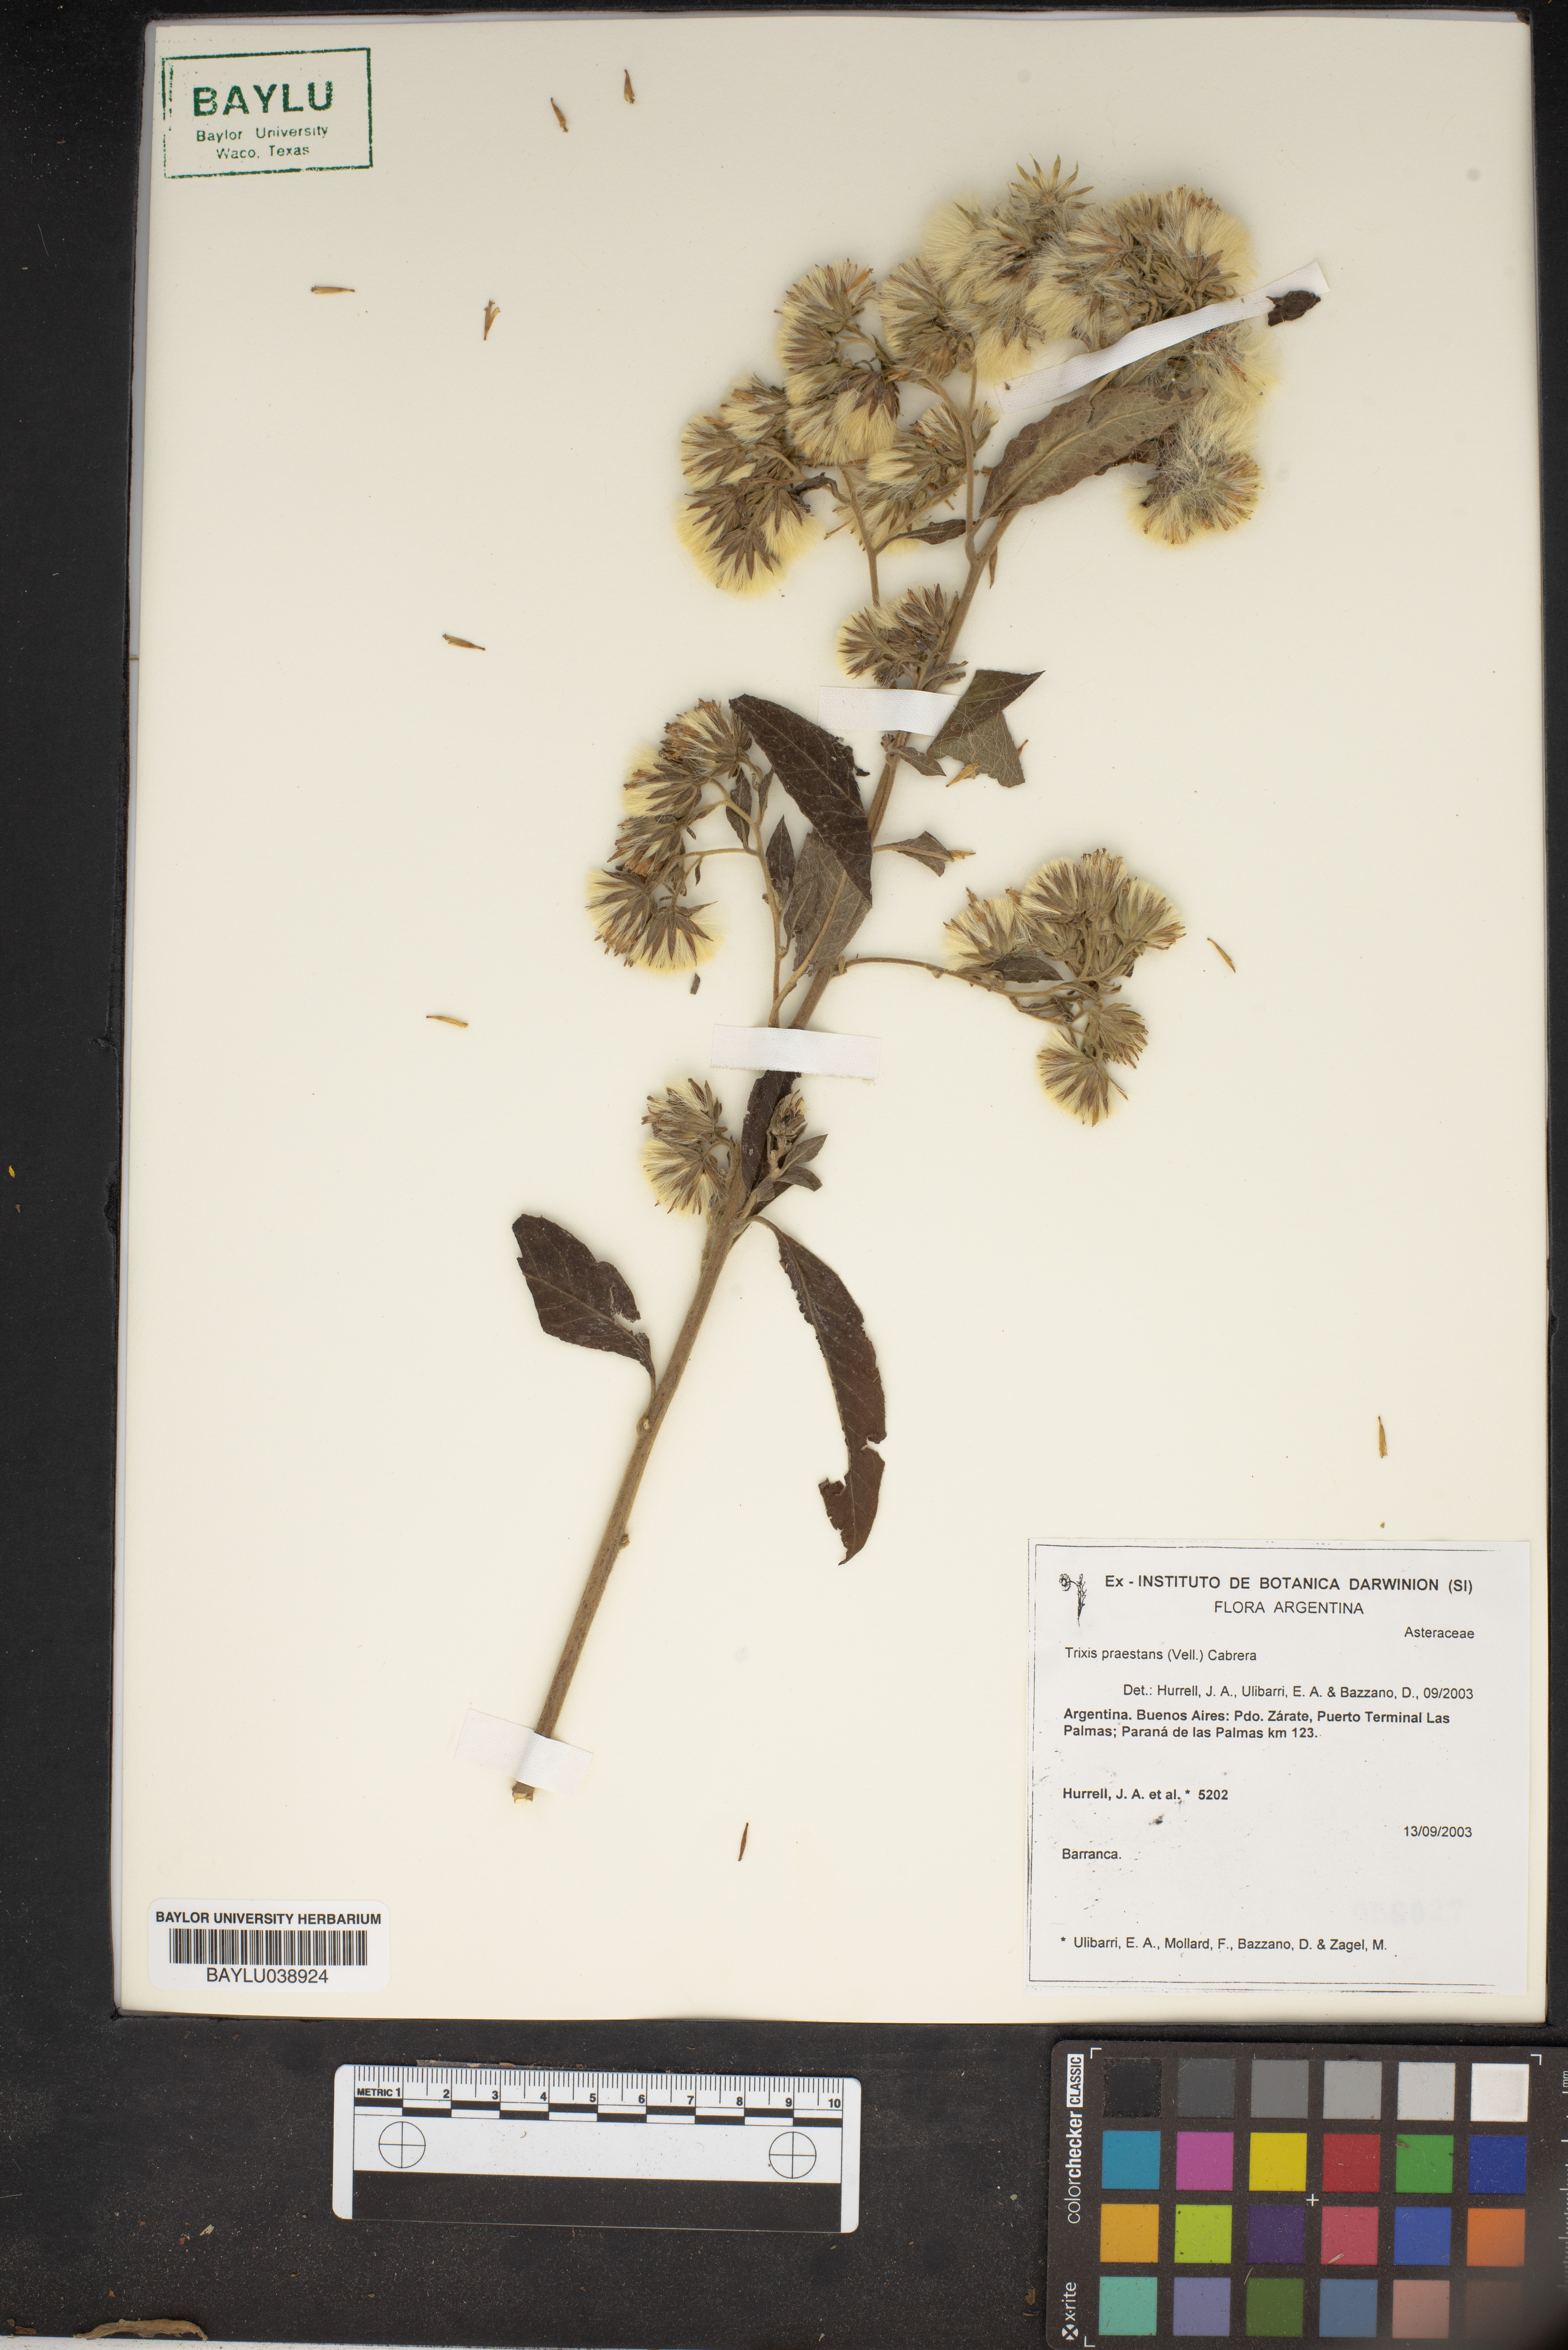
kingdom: Plantae
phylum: Tracheophyta
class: Magnoliopsida
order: Asterales
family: Asteraceae
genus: Trixis
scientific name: Trixis praestans
